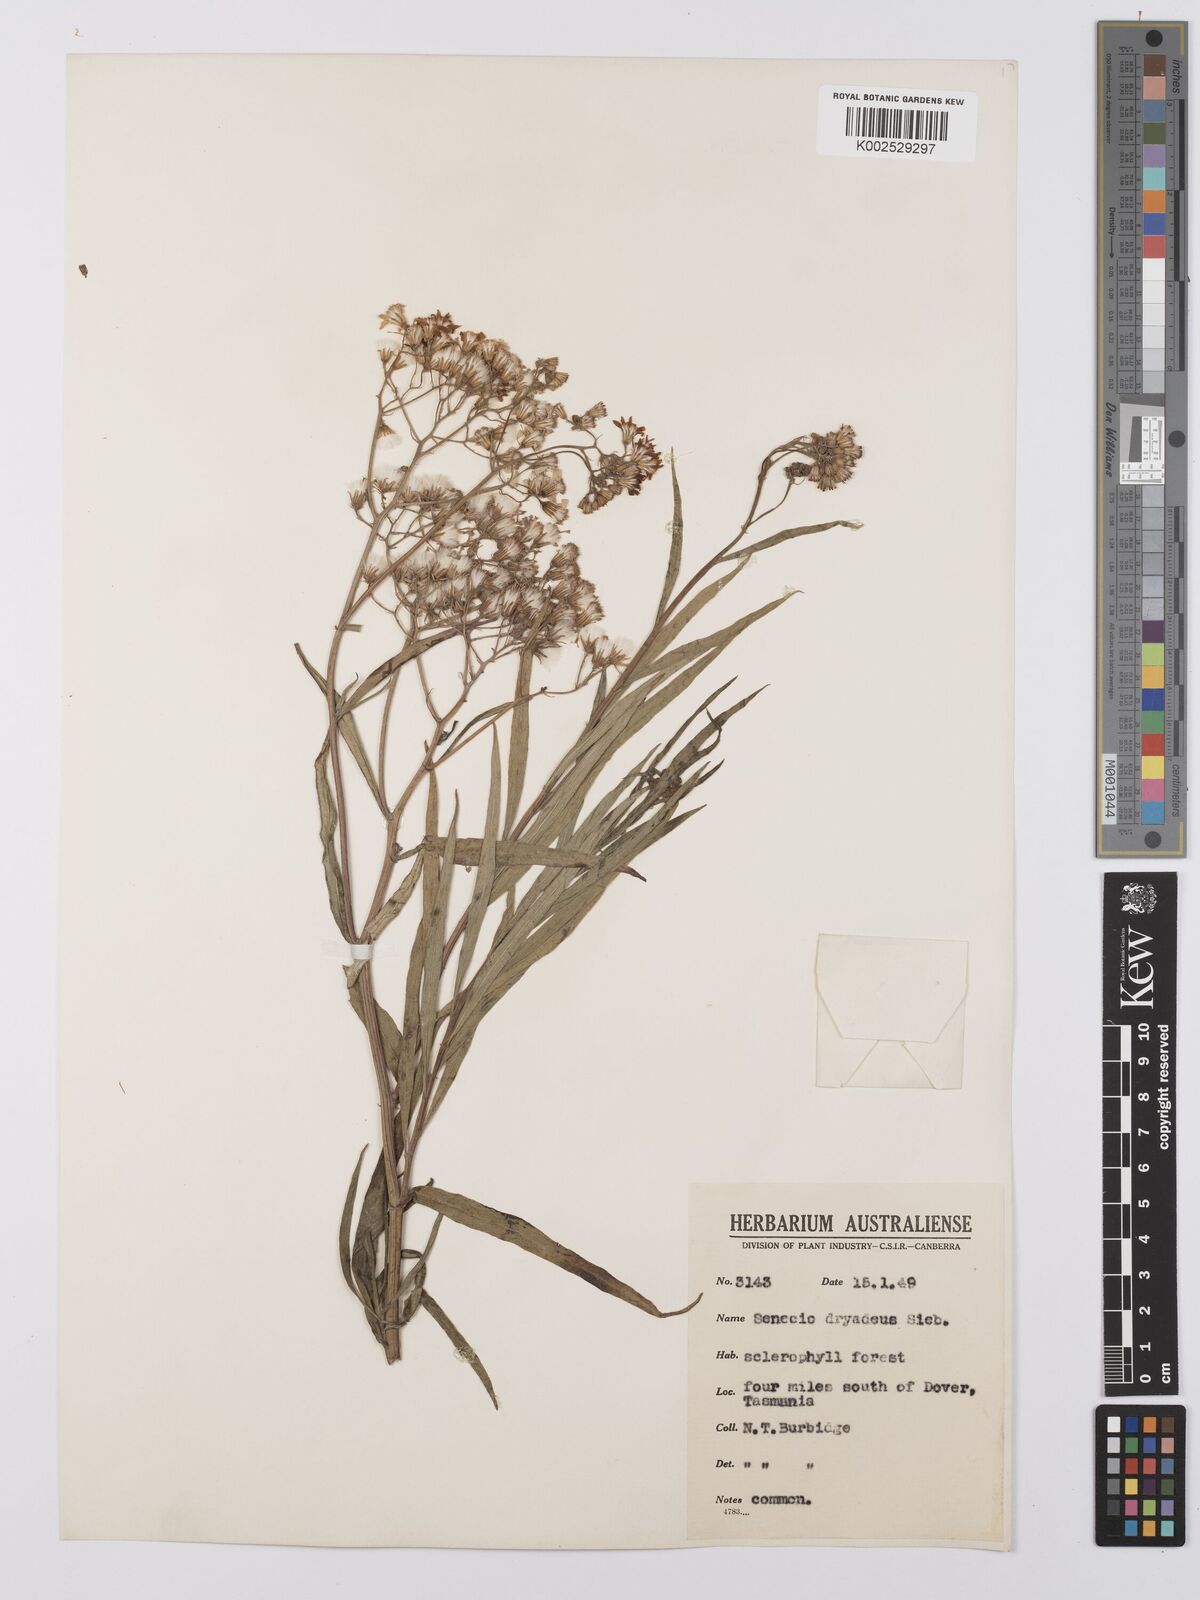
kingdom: Plantae
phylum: Tracheophyta
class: Magnoliopsida
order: Asterales
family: Asteraceae
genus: Senecio
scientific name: Senecio
